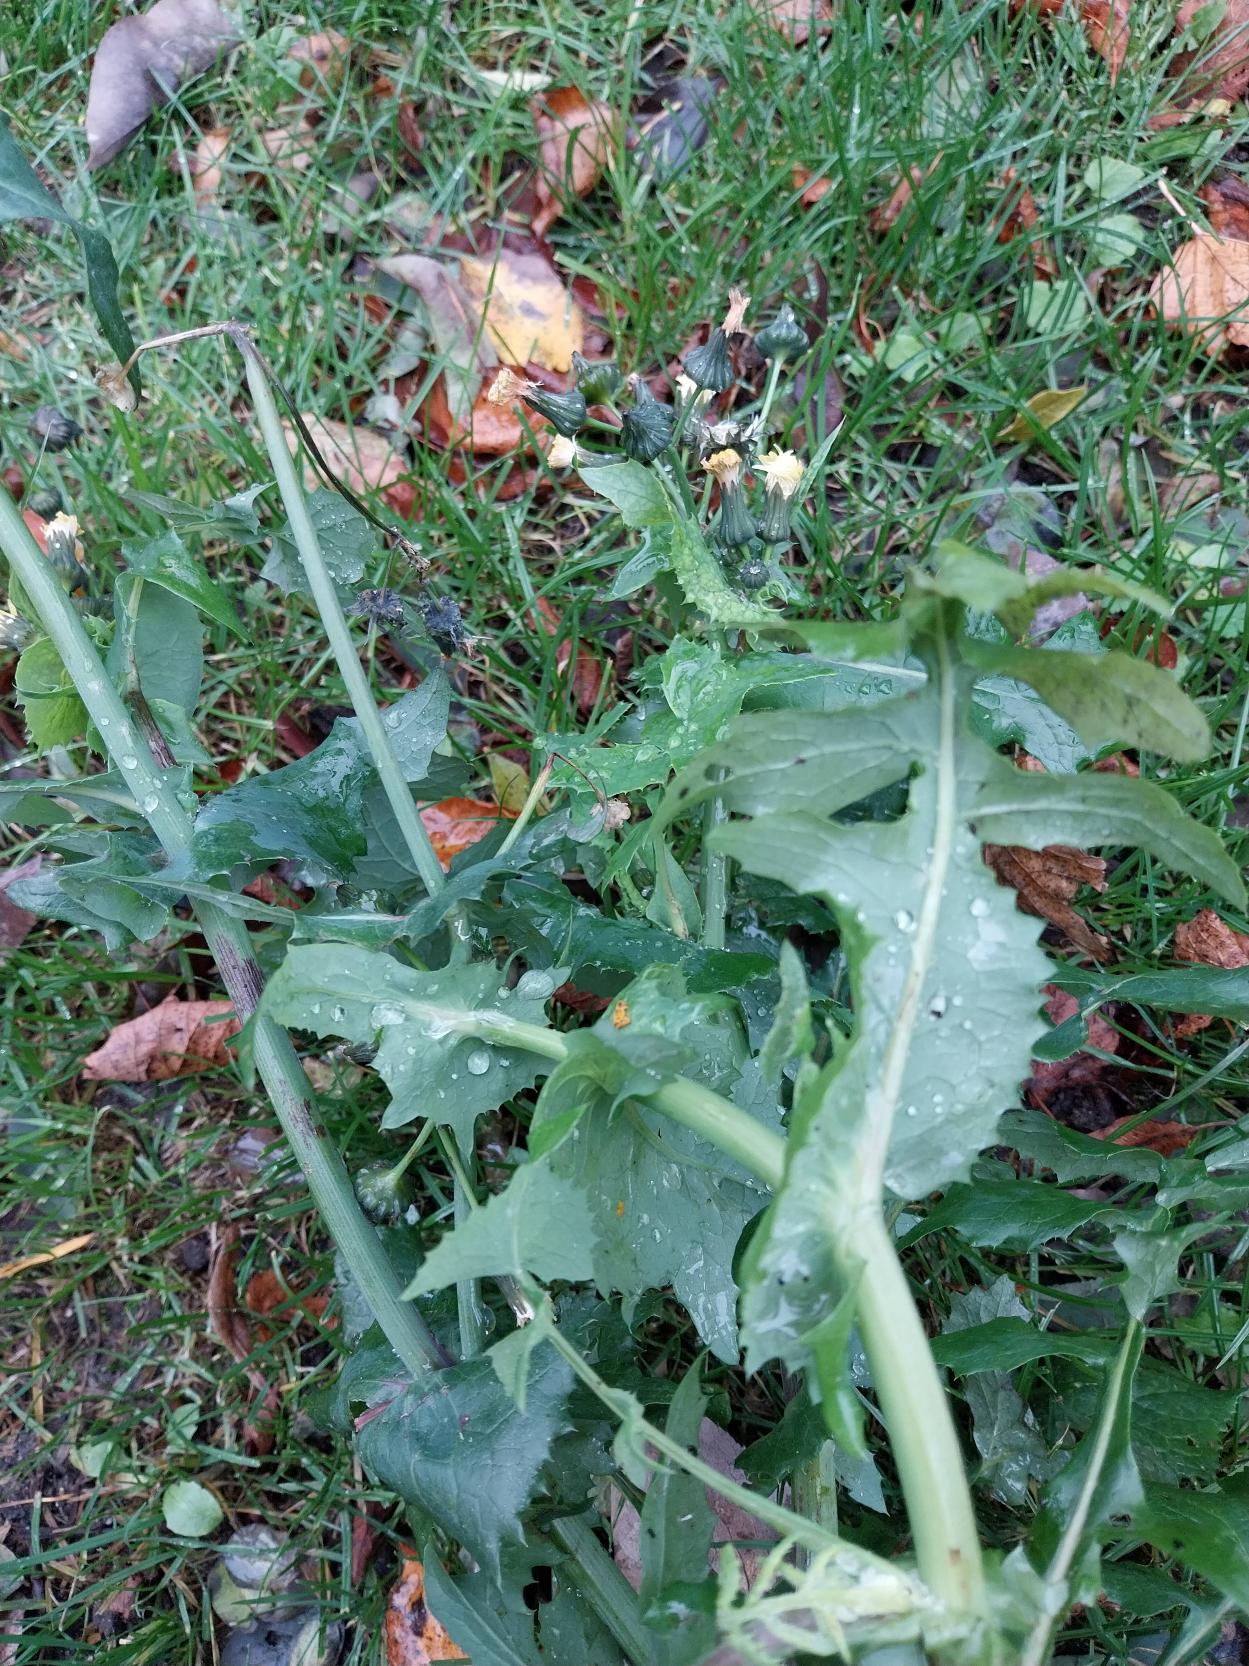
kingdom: Plantae
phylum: Tracheophyta
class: Magnoliopsida
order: Asterales
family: Asteraceae
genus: Sonchus
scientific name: Sonchus oleraceus
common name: Almindelig svinemælk
